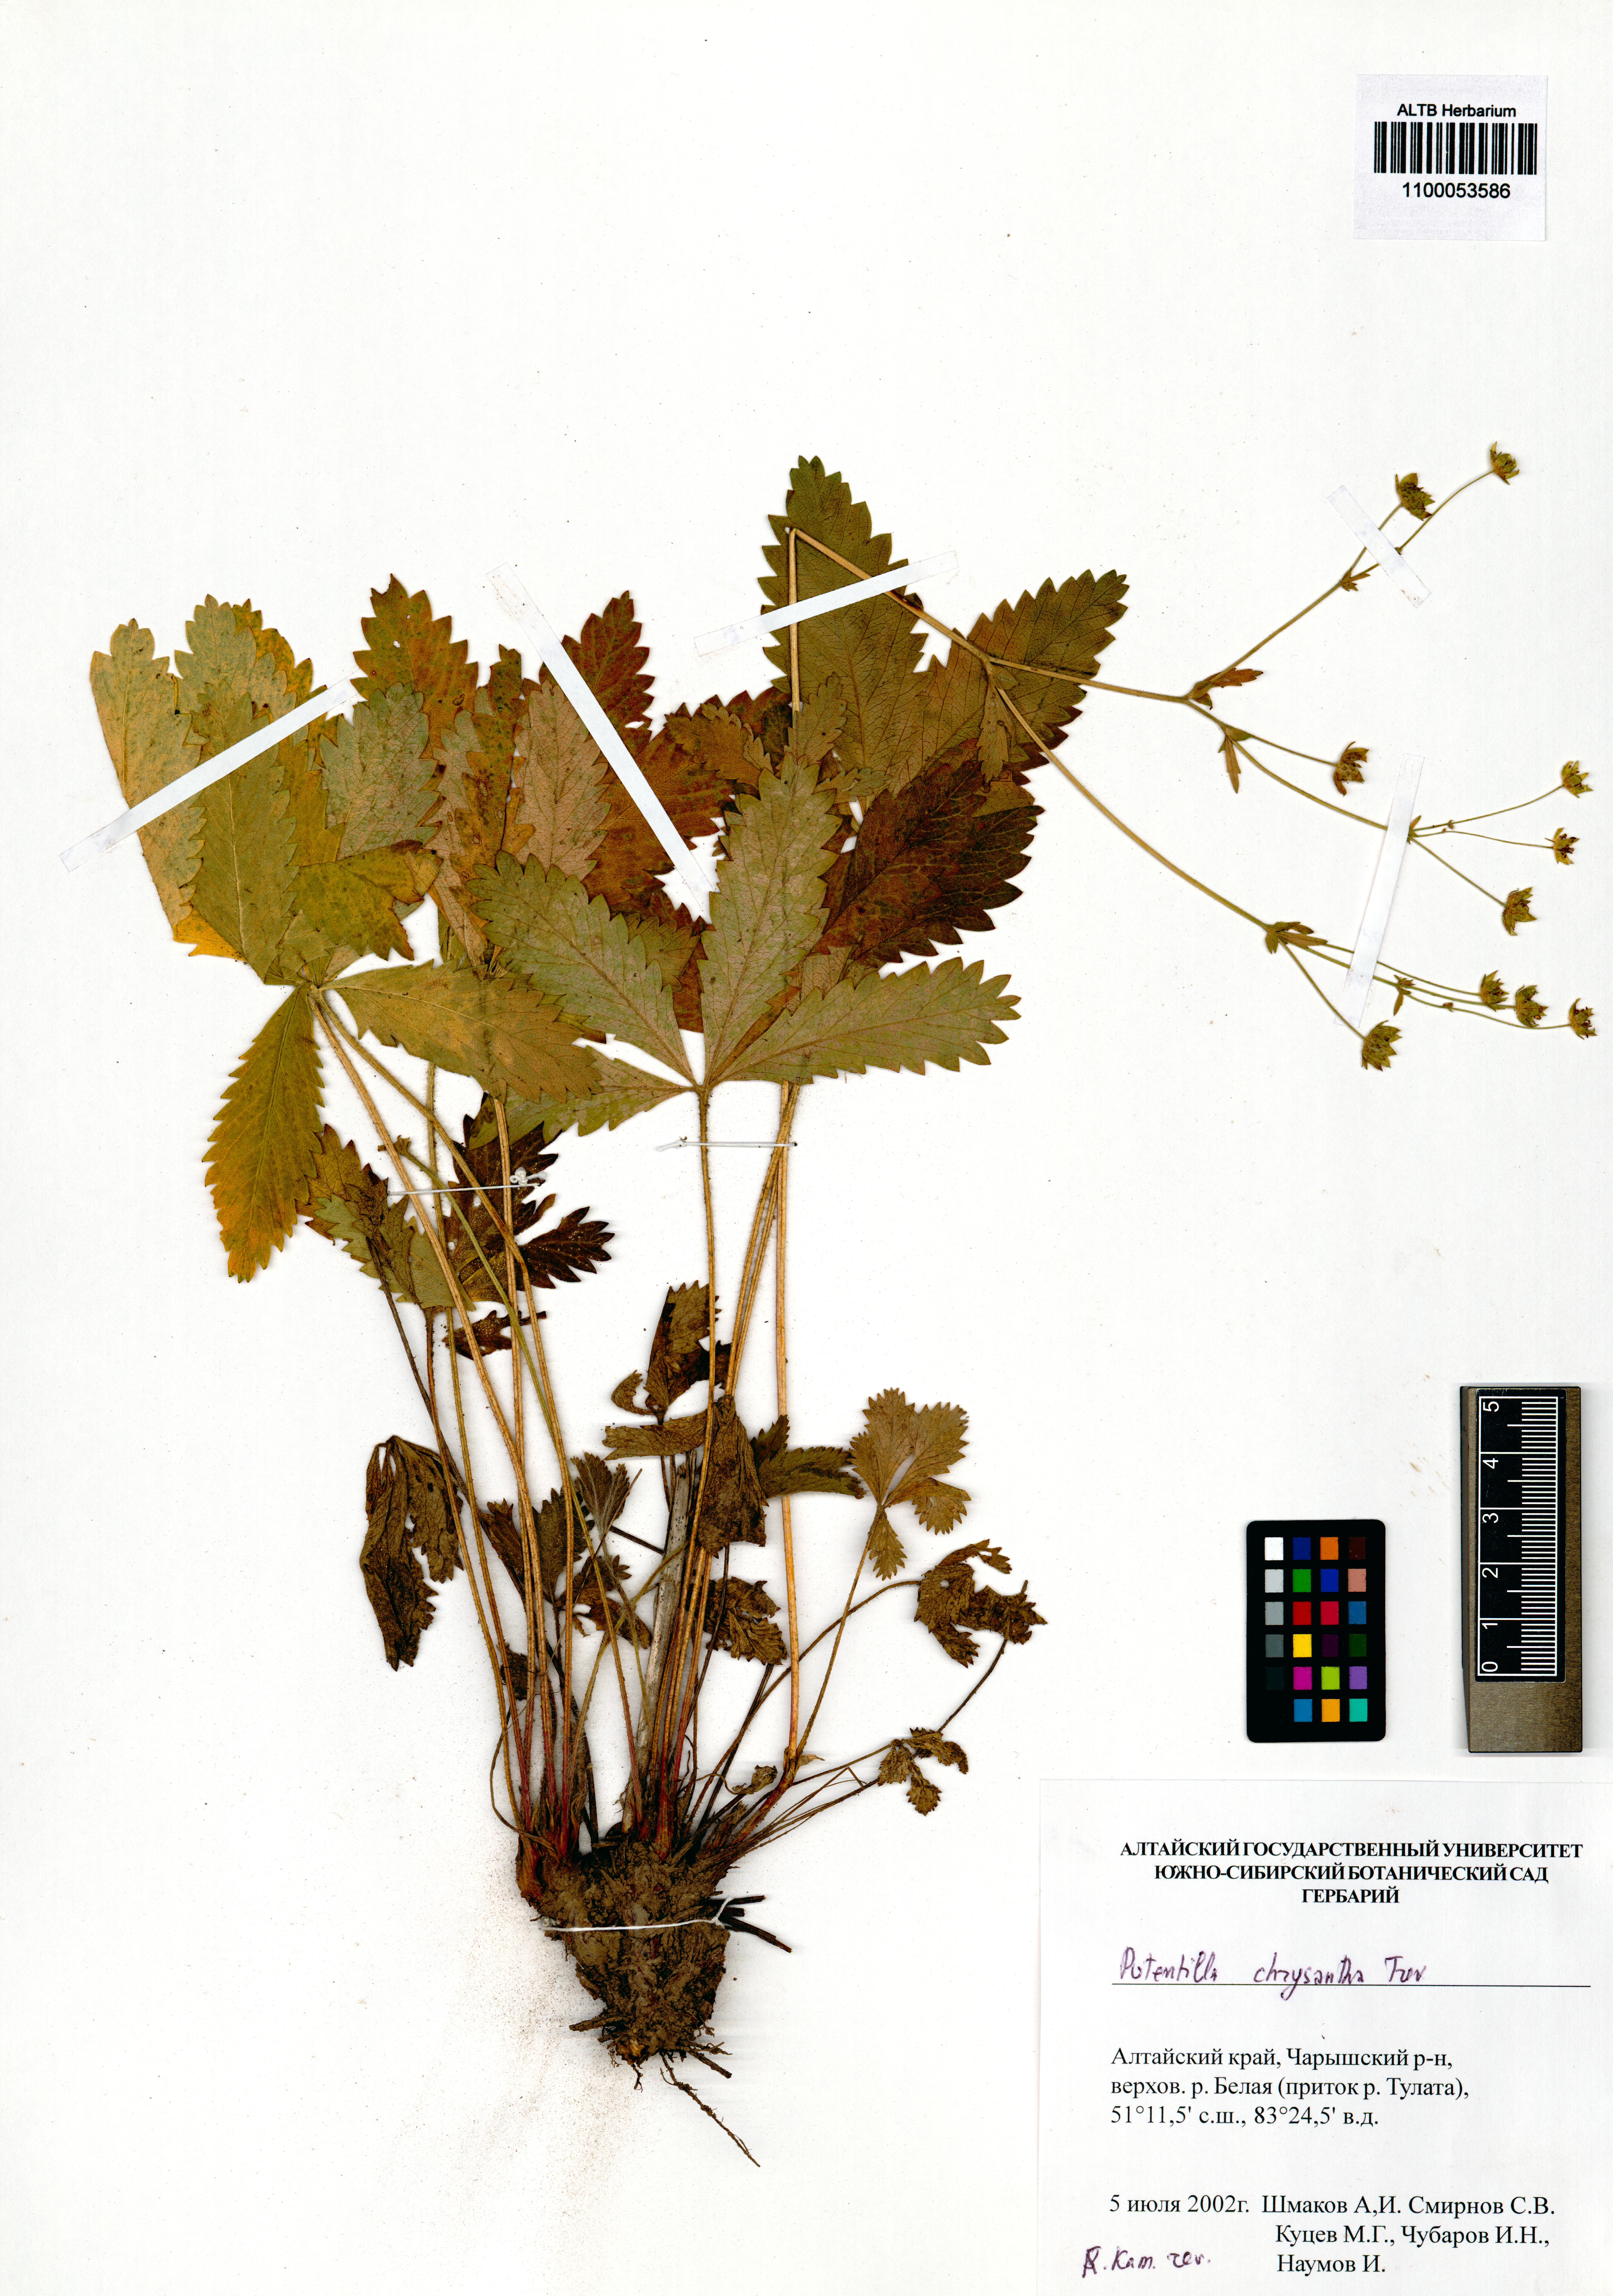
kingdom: Plantae
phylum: Tracheophyta
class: Magnoliopsida
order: Rosales
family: Rosaceae
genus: Potentilla
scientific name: Potentilla chrysantha
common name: Thuringian cinquefoil
